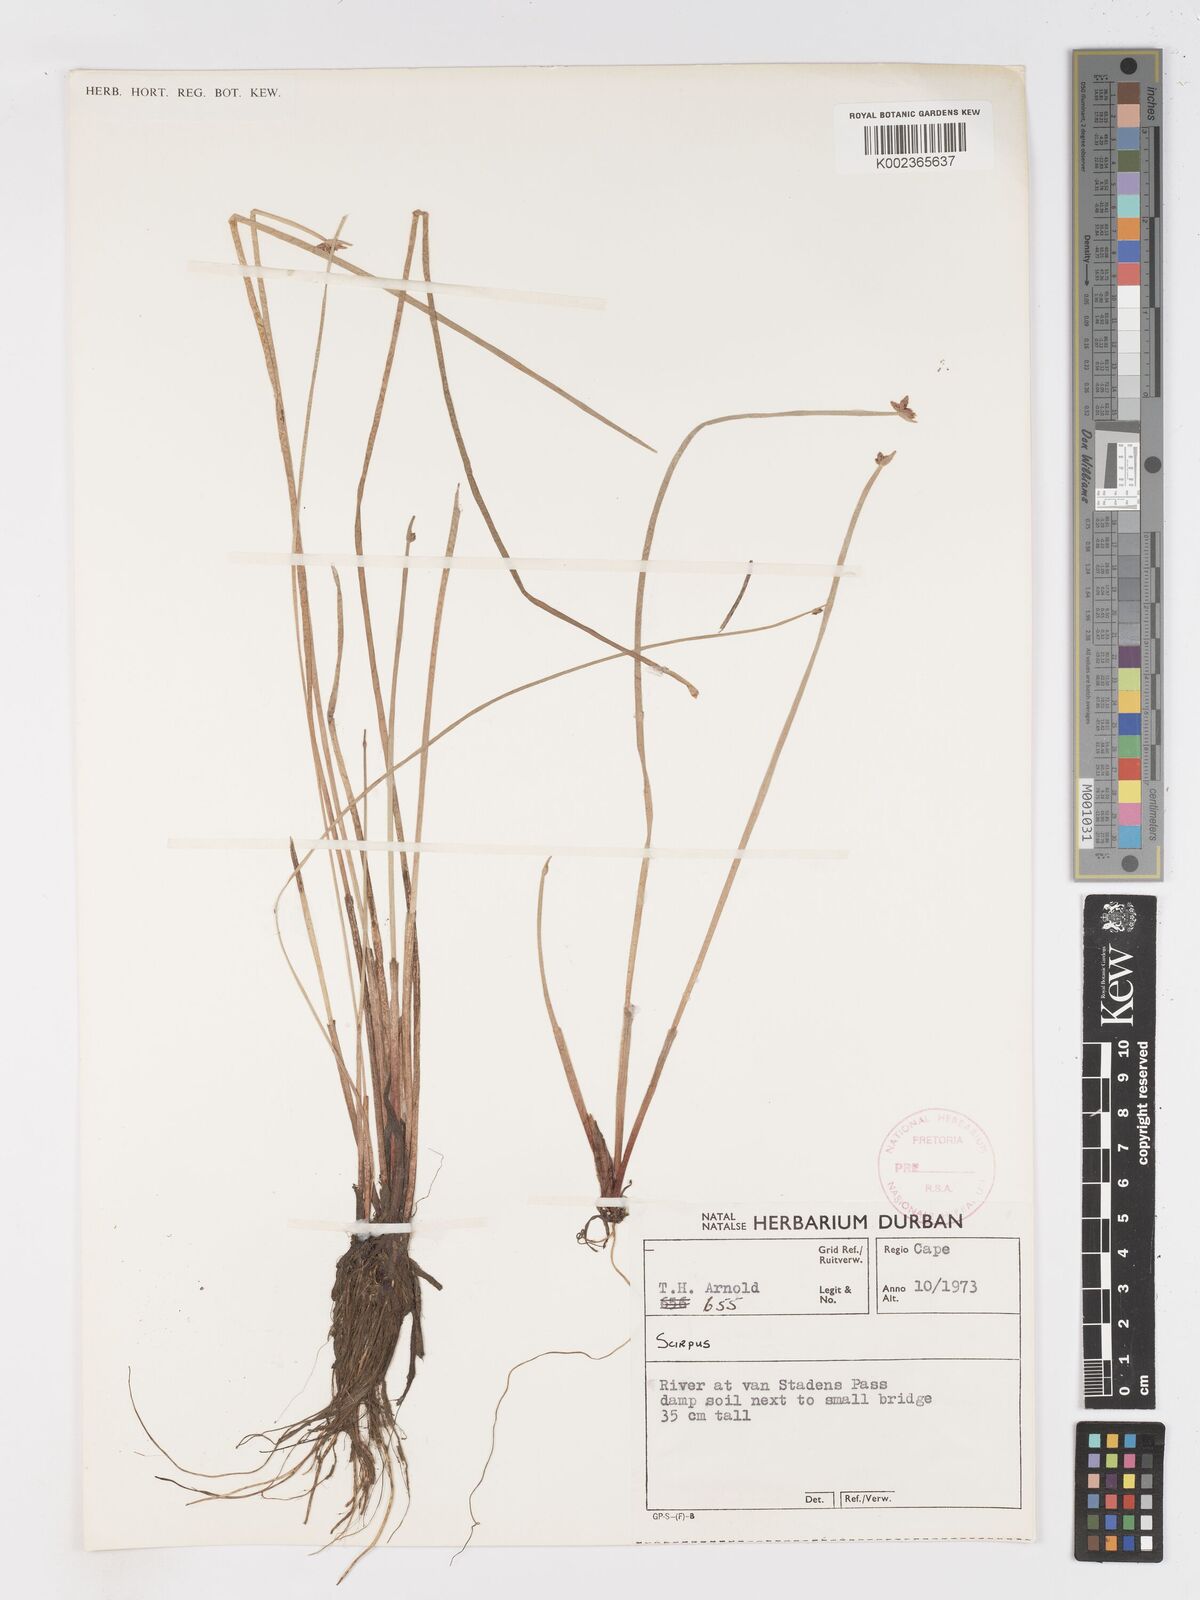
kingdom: Plantae
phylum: Tracheophyta
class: Liliopsida
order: Poales
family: Cyperaceae
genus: Schoenoplectus
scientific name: Schoenoplectus
